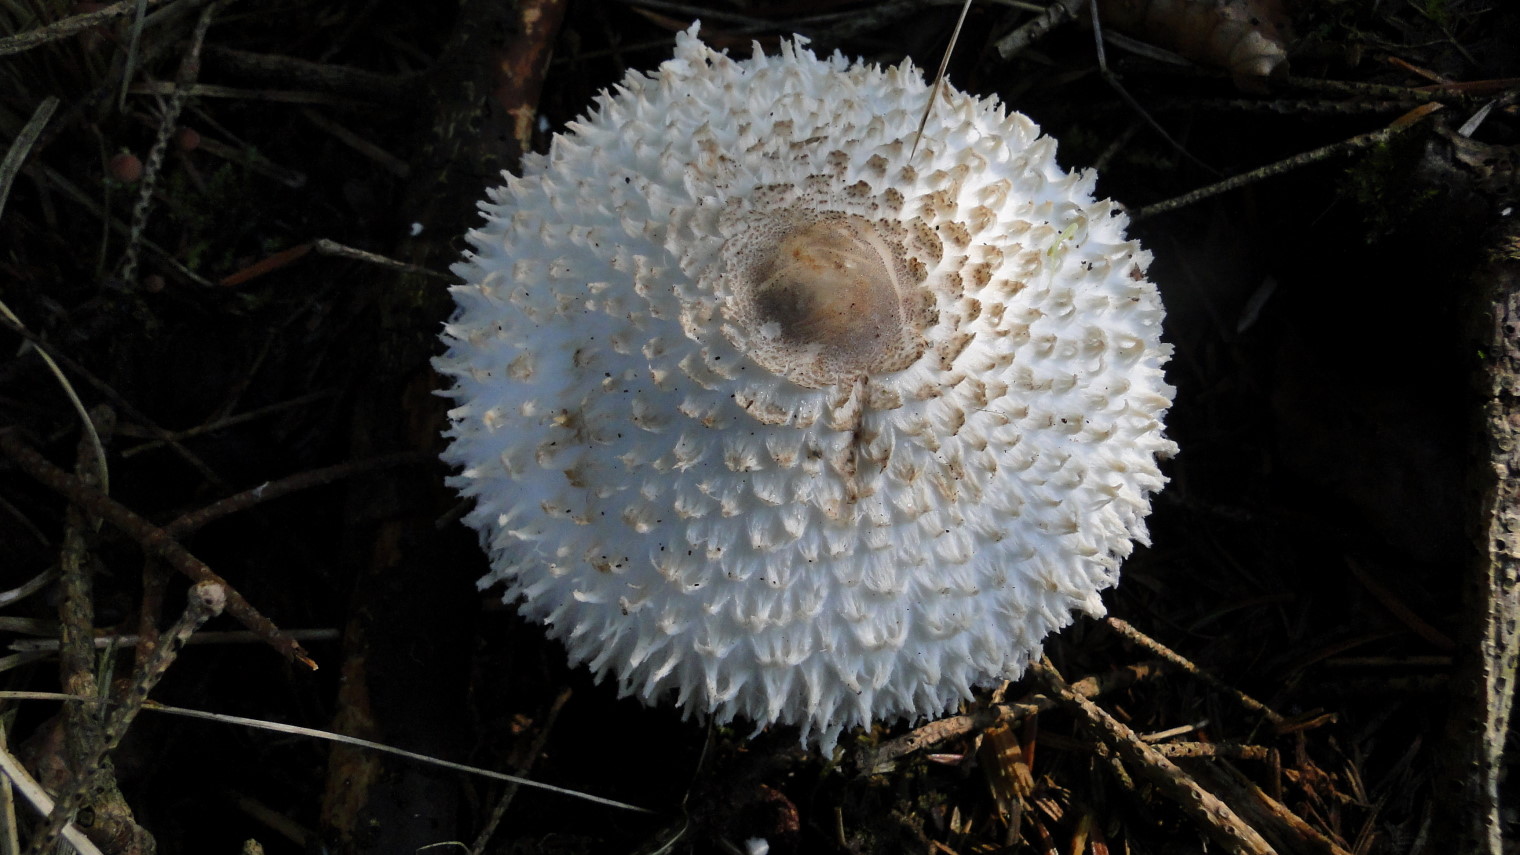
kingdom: Fungi
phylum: Basidiomycota
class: Agaricomycetes
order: Agaricales
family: Agaricaceae
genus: Leucoagaricus
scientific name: Leucoagaricus nympharum
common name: gran-silkehat
